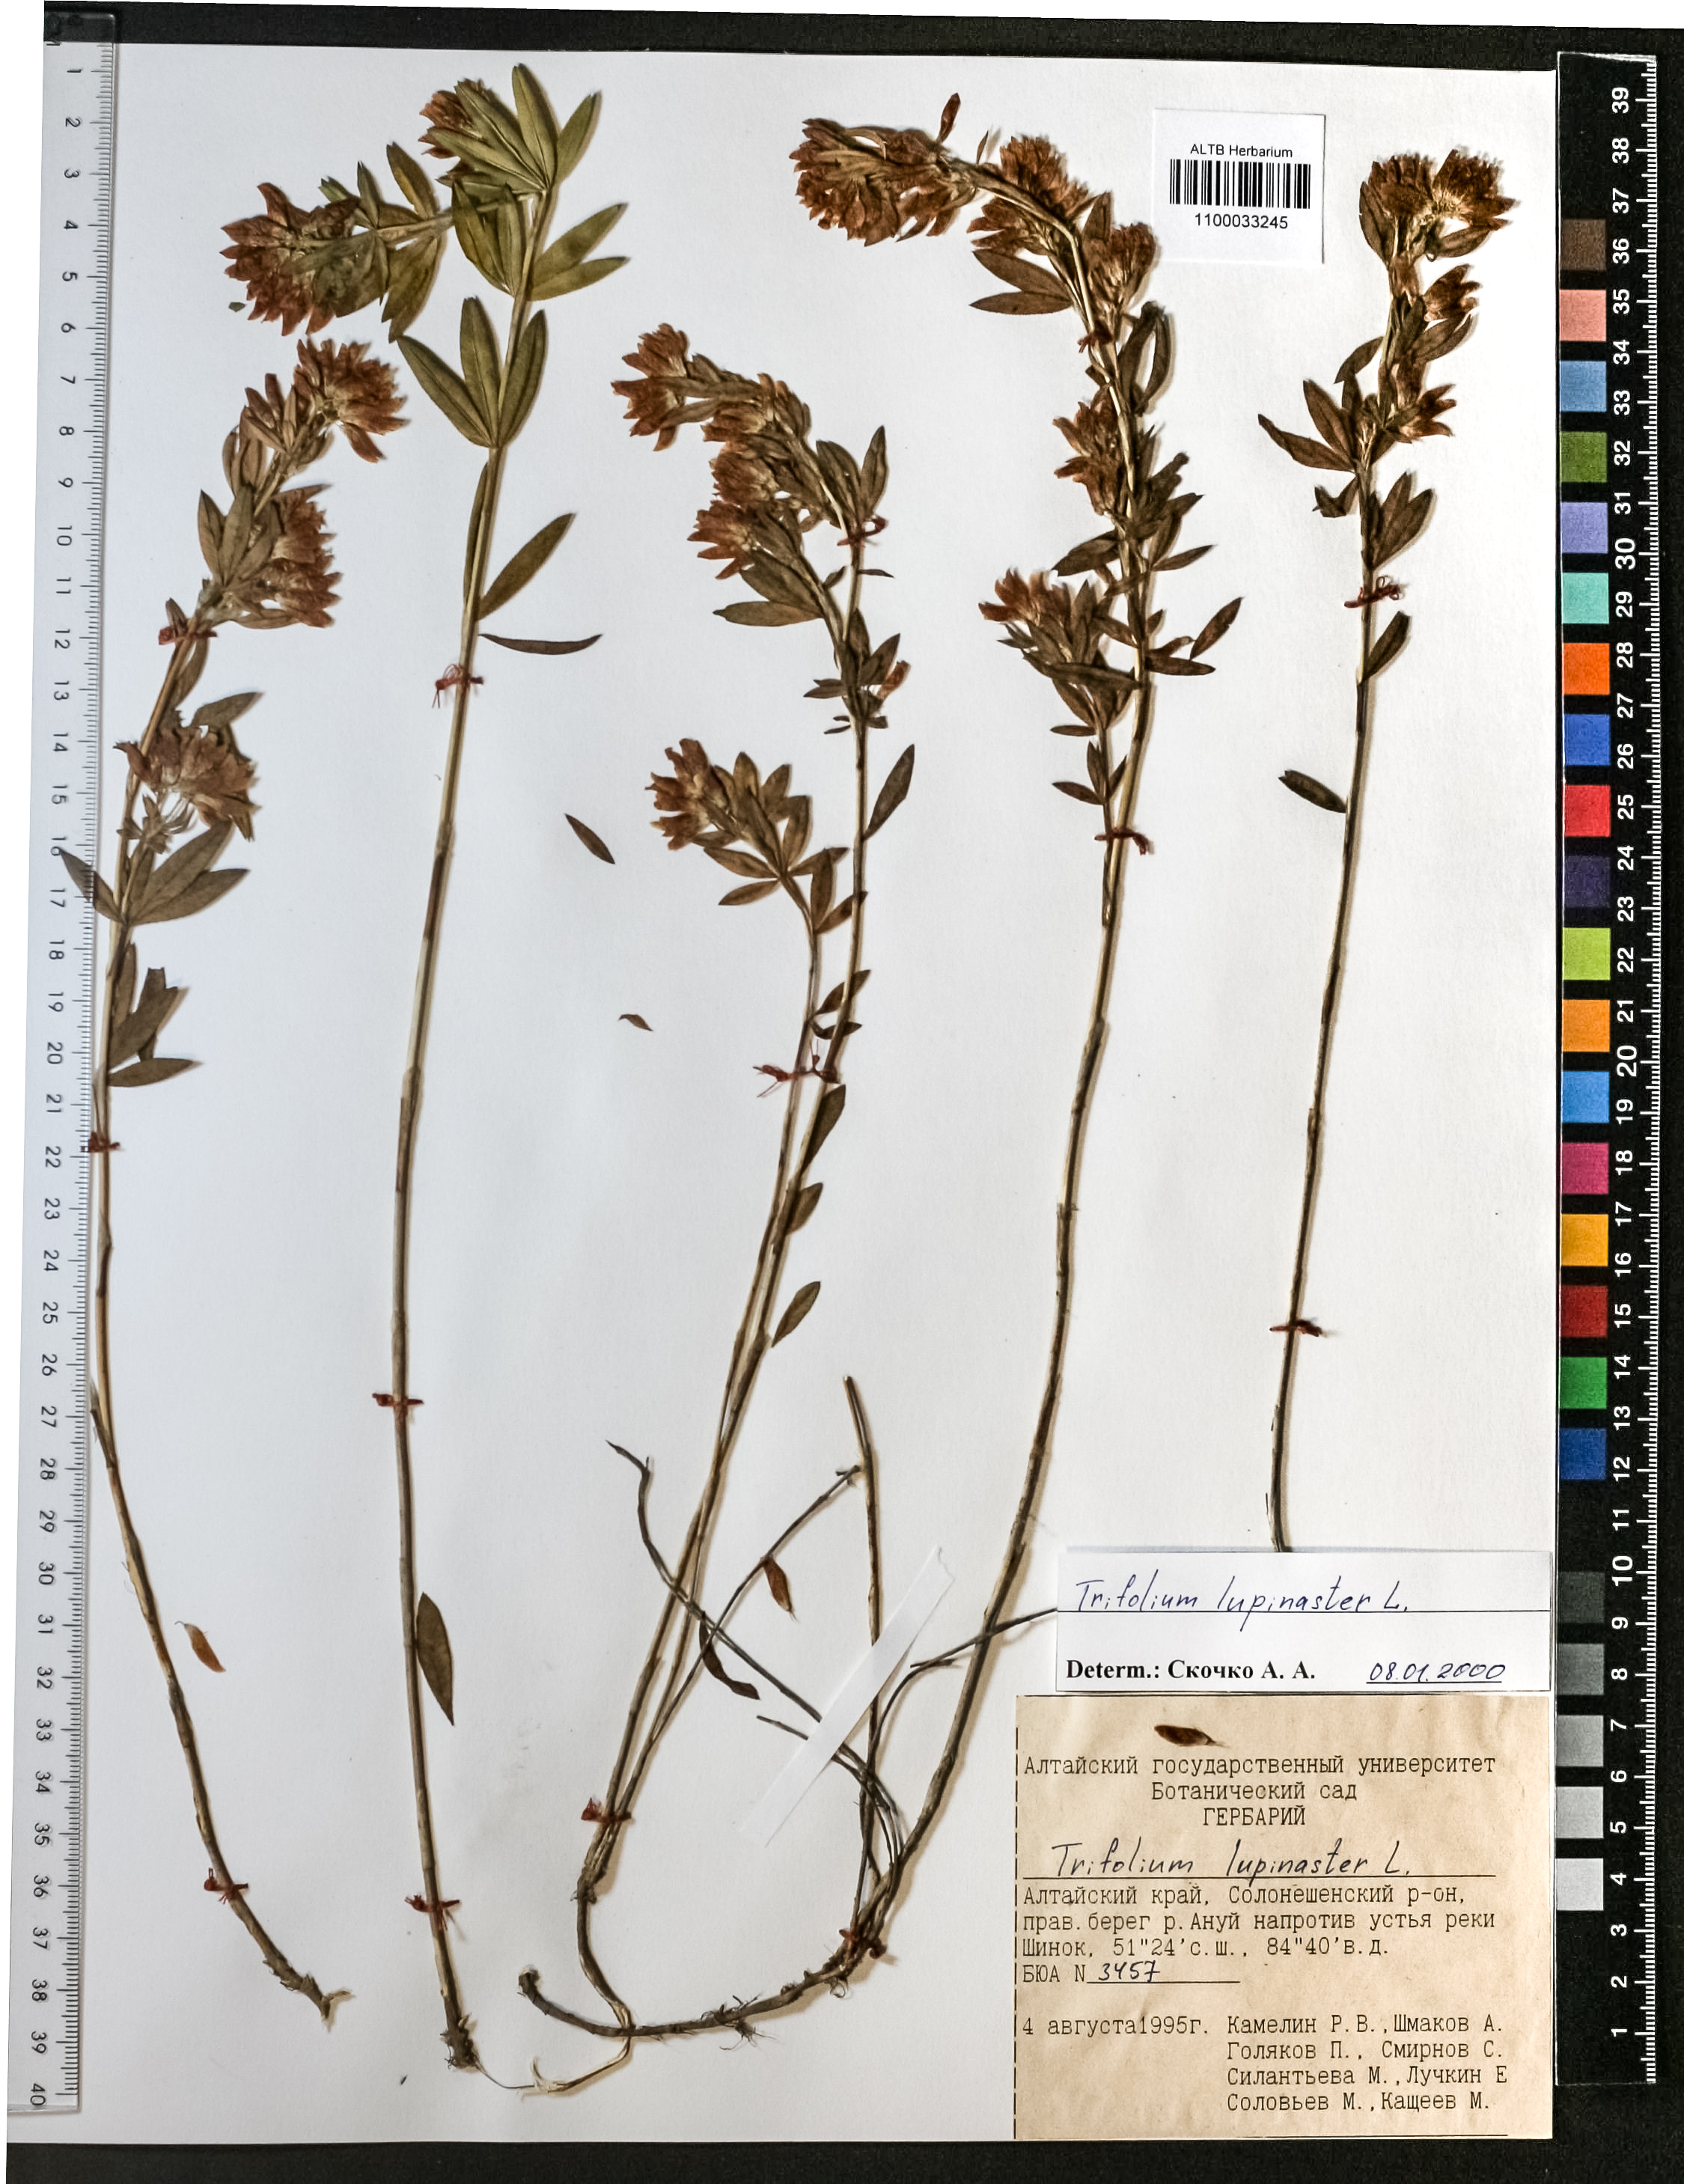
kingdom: Plantae
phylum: Tracheophyta
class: Magnoliopsida
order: Fabales
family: Fabaceae
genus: Trifolium
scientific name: Trifolium lupinaster
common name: Lupine clover
